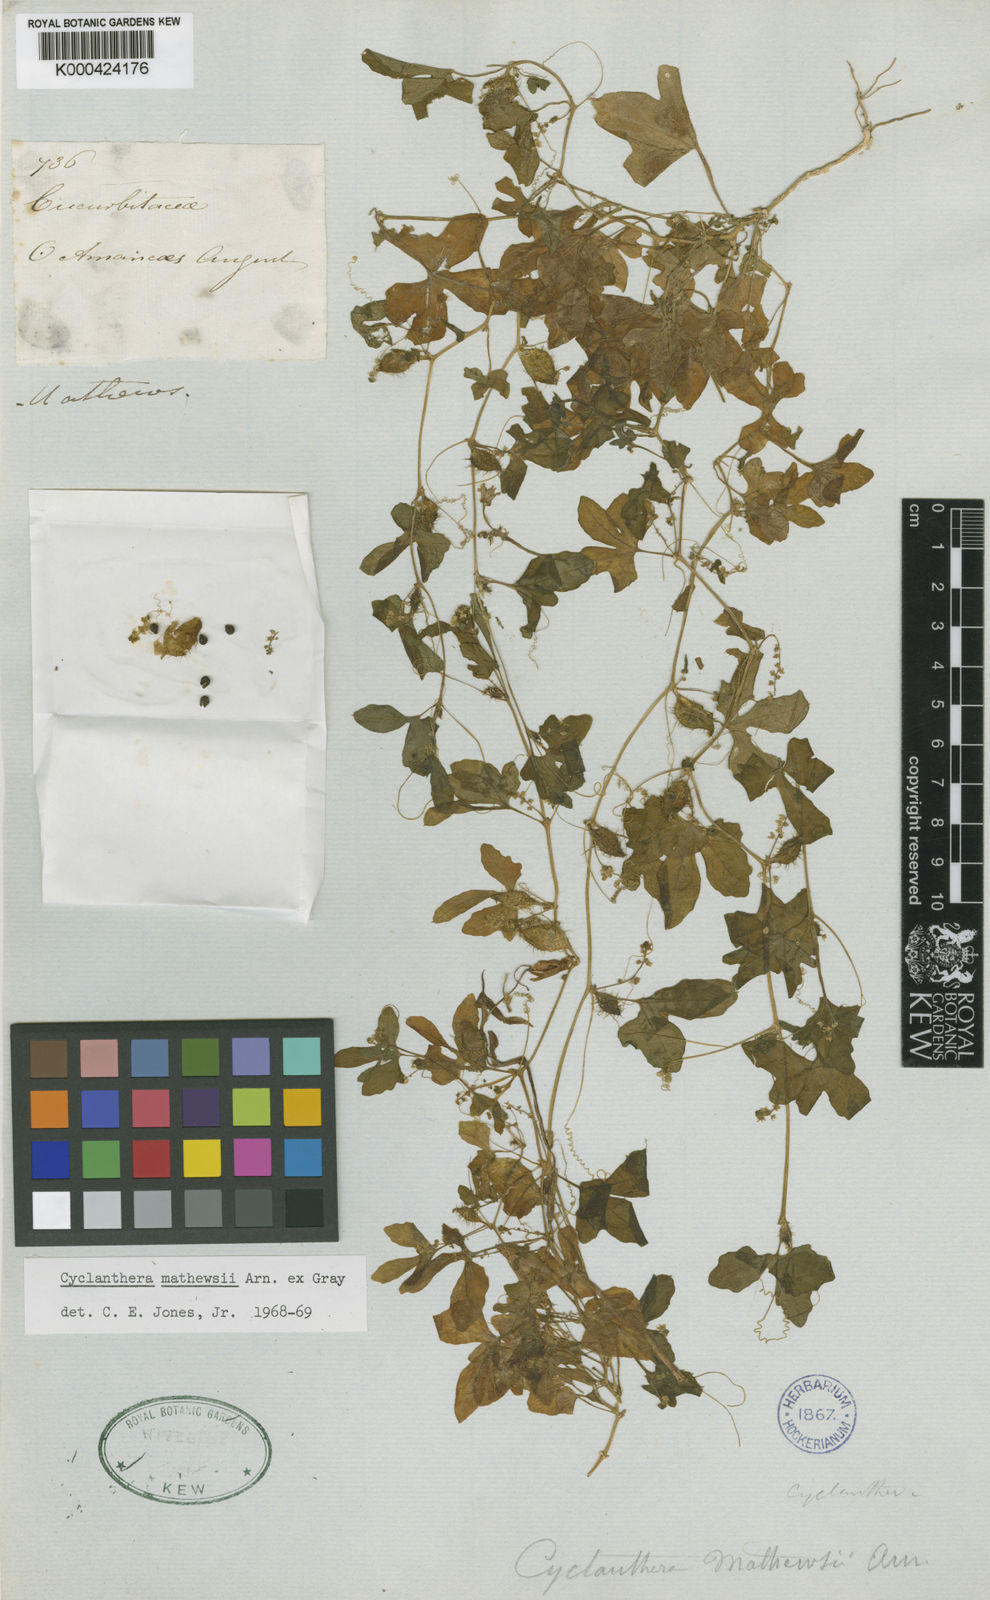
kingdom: Plantae
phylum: Tracheophyta
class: Magnoliopsida
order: Cucurbitales
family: Cucurbitaceae
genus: Cyclanthera
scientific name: Cyclanthera
